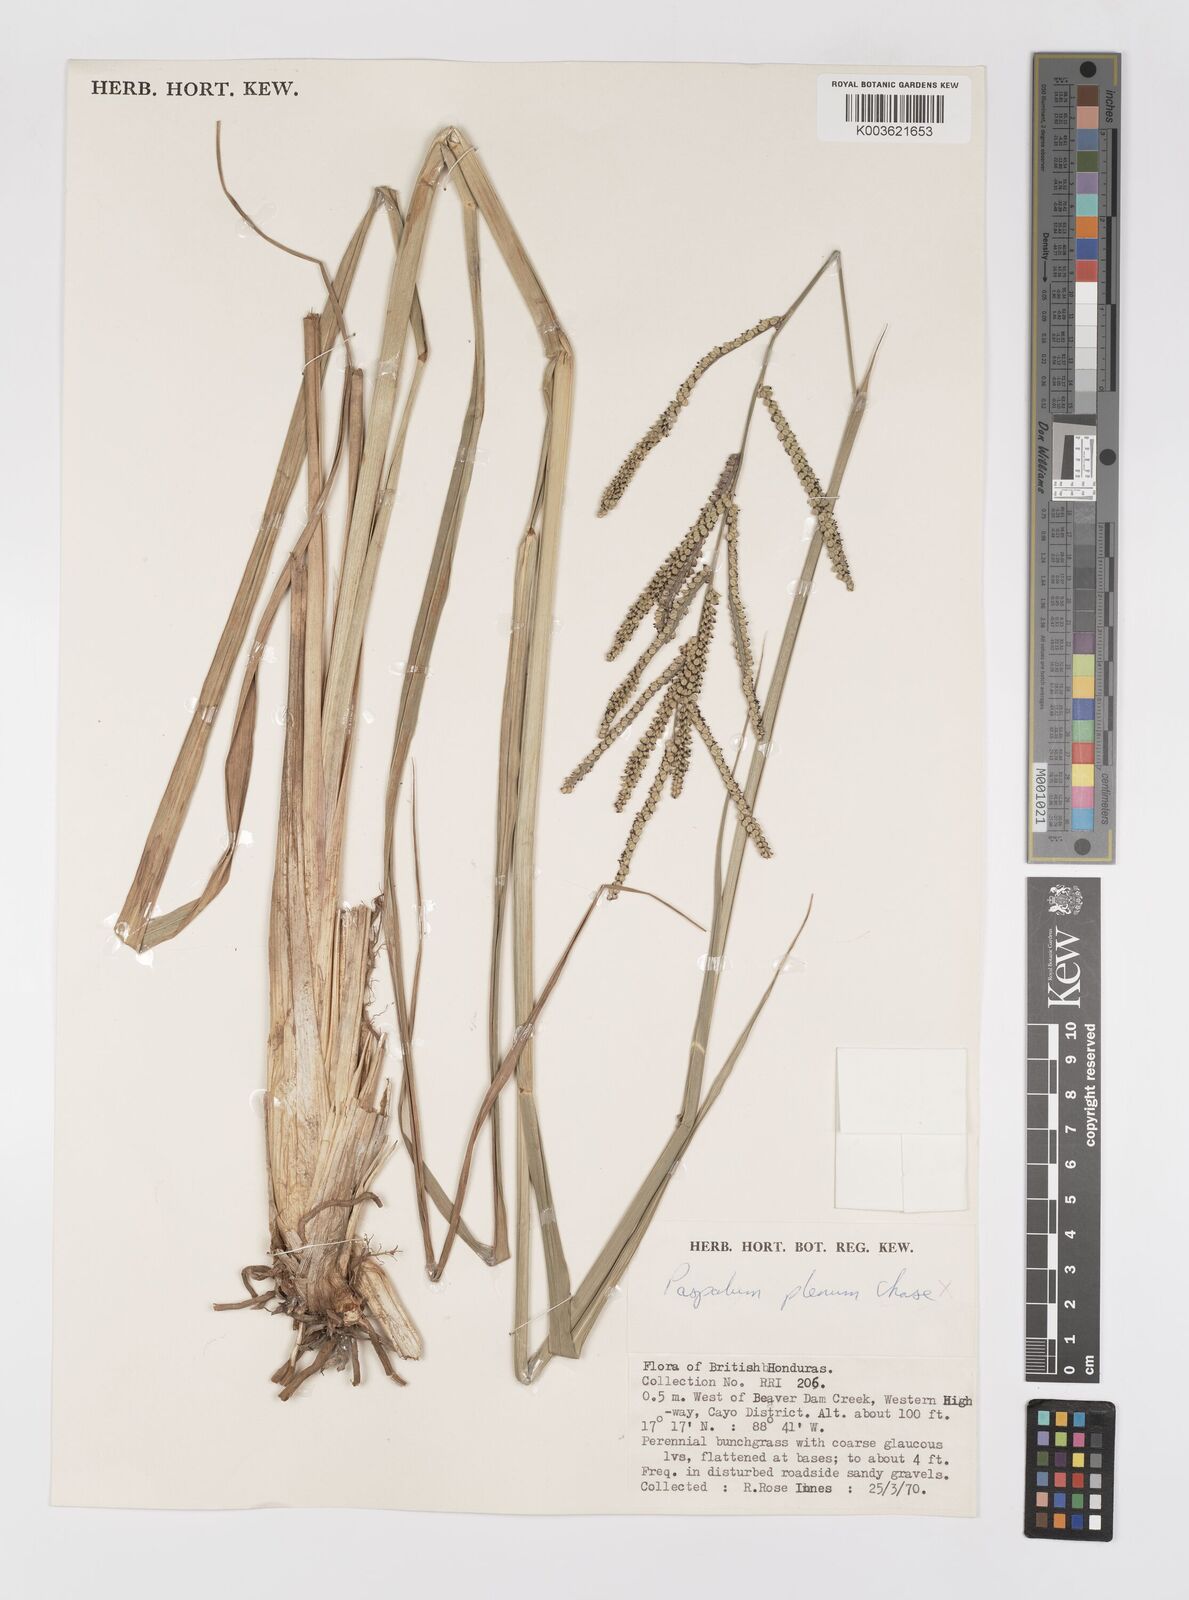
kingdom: Plantae
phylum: Tracheophyta
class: Liliopsida
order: Poales
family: Poaceae
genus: Paspalum
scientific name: Paspalum millegranum
